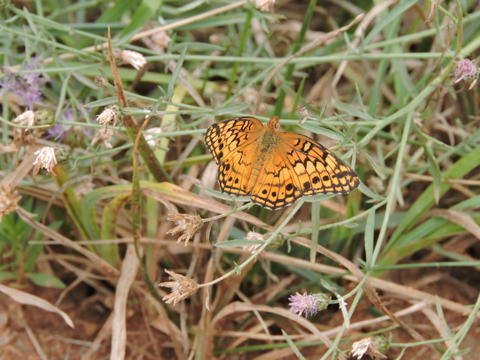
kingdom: Animalia
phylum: Arthropoda
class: Insecta
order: Lepidoptera
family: Nymphalidae
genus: Euptoieta
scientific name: Euptoieta claudia
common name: Variegated Fritillary
